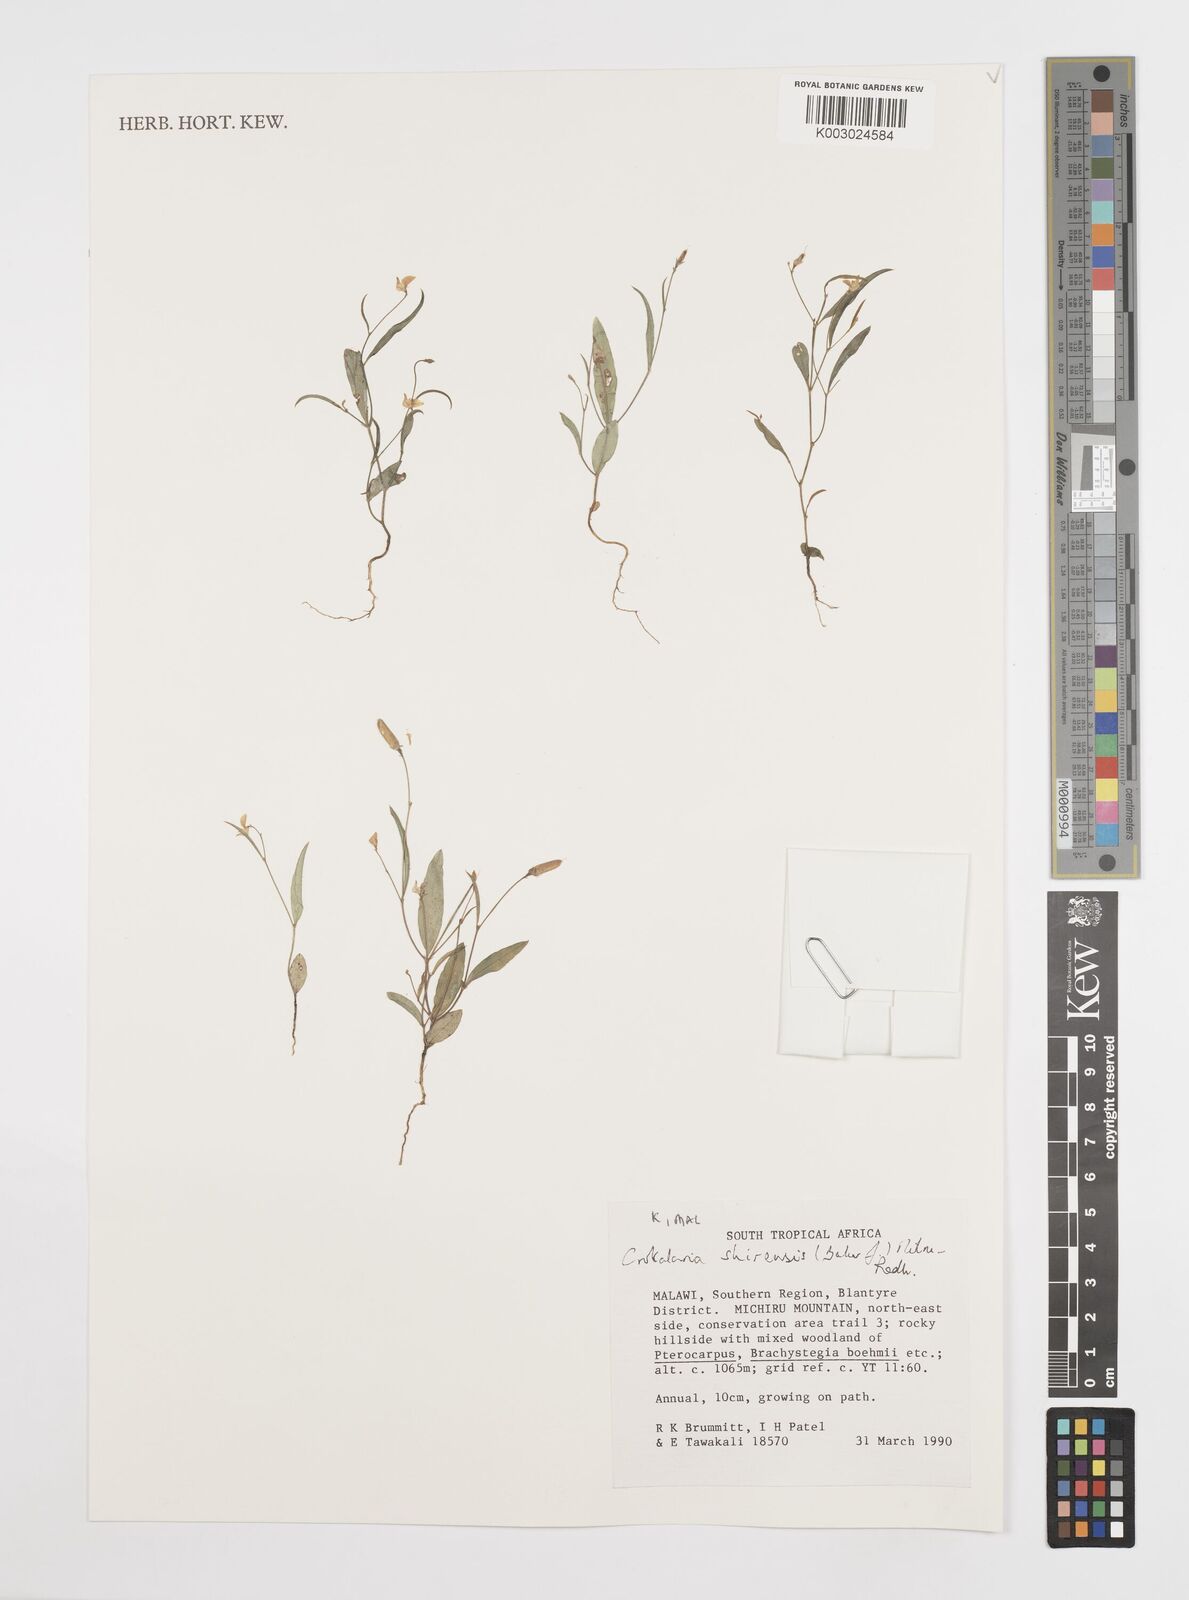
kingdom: Plantae
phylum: Tracheophyta
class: Magnoliopsida
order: Fabales
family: Fabaceae
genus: Crotalaria
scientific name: Crotalaria shirensis
